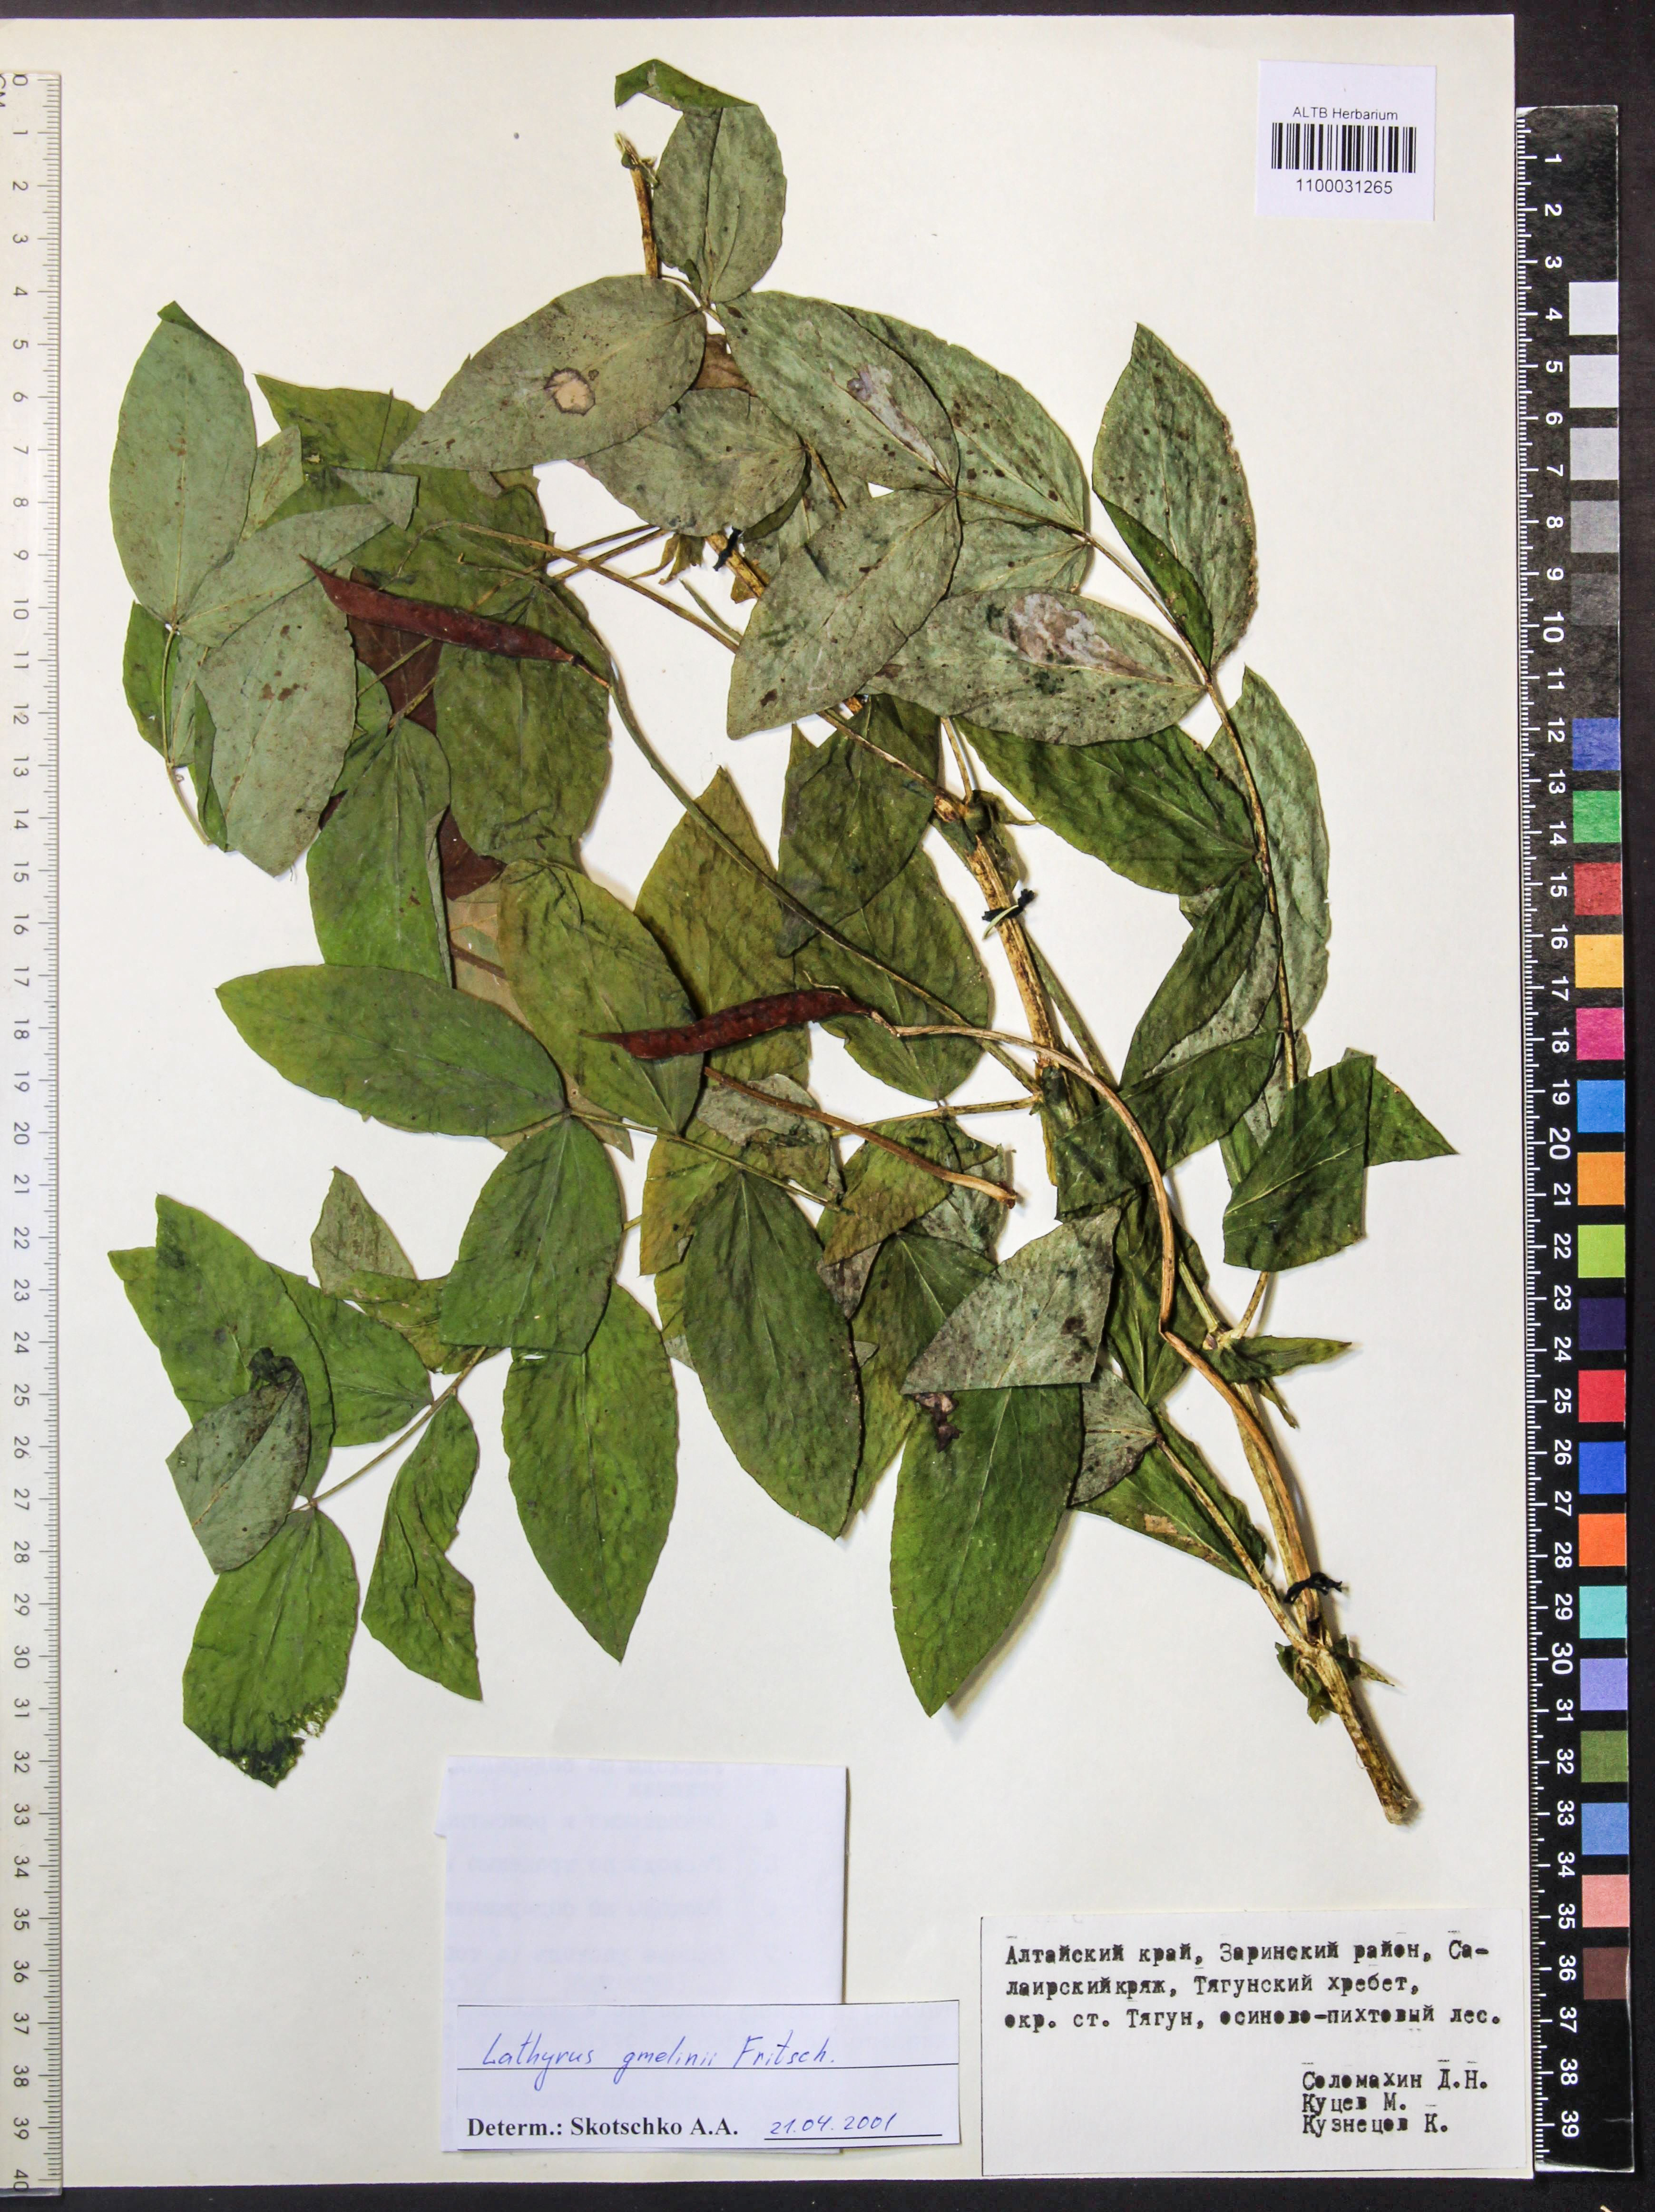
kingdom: Plantae
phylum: Tracheophyta
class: Magnoliopsida
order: Fabales
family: Fabaceae
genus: Lathyrus
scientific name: Lathyrus gmelinii
